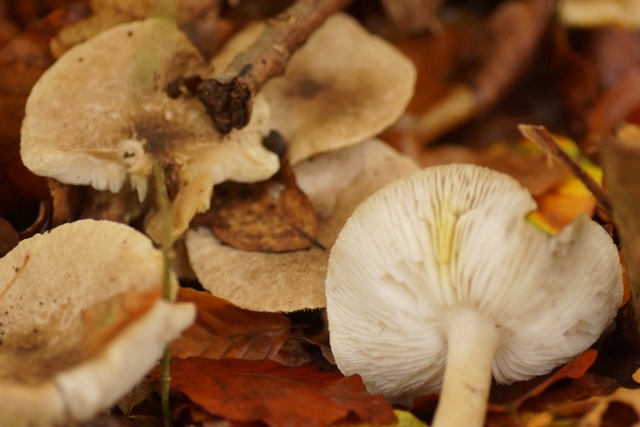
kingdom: Fungi
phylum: Basidiomycota
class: Agaricomycetes
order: Agaricales
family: Tricholomataceae
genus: Tricholoma
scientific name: Tricholoma scalpturatum
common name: gulplettet ridderhat
